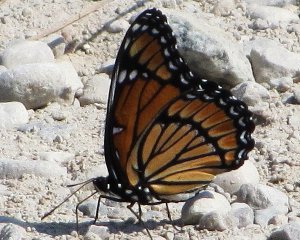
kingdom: Animalia
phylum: Arthropoda
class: Insecta
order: Lepidoptera
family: Nymphalidae
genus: Limenitis
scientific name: Limenitis archippus
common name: Viceroy
